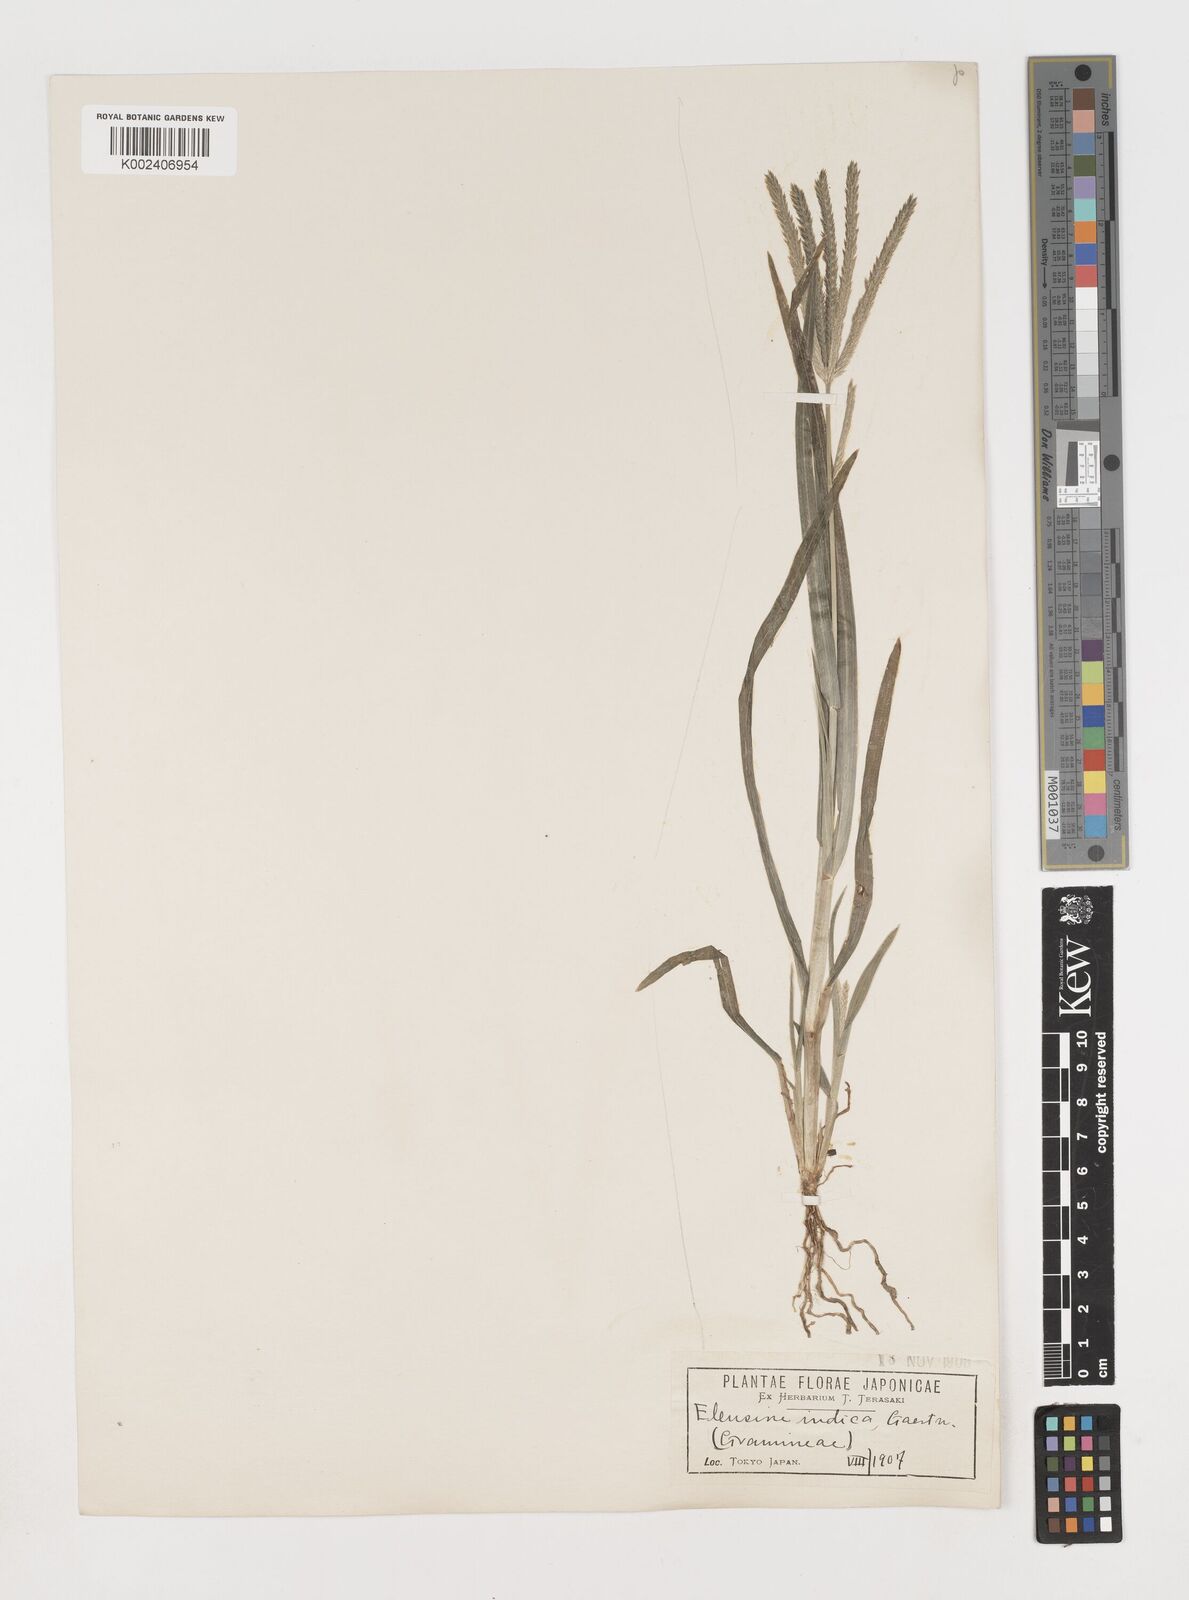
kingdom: Plantae
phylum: Tracheophyta
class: Liliopsida
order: Poales
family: Poaceae
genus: Eleusine
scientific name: Eleusine indica
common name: Yard-grass
